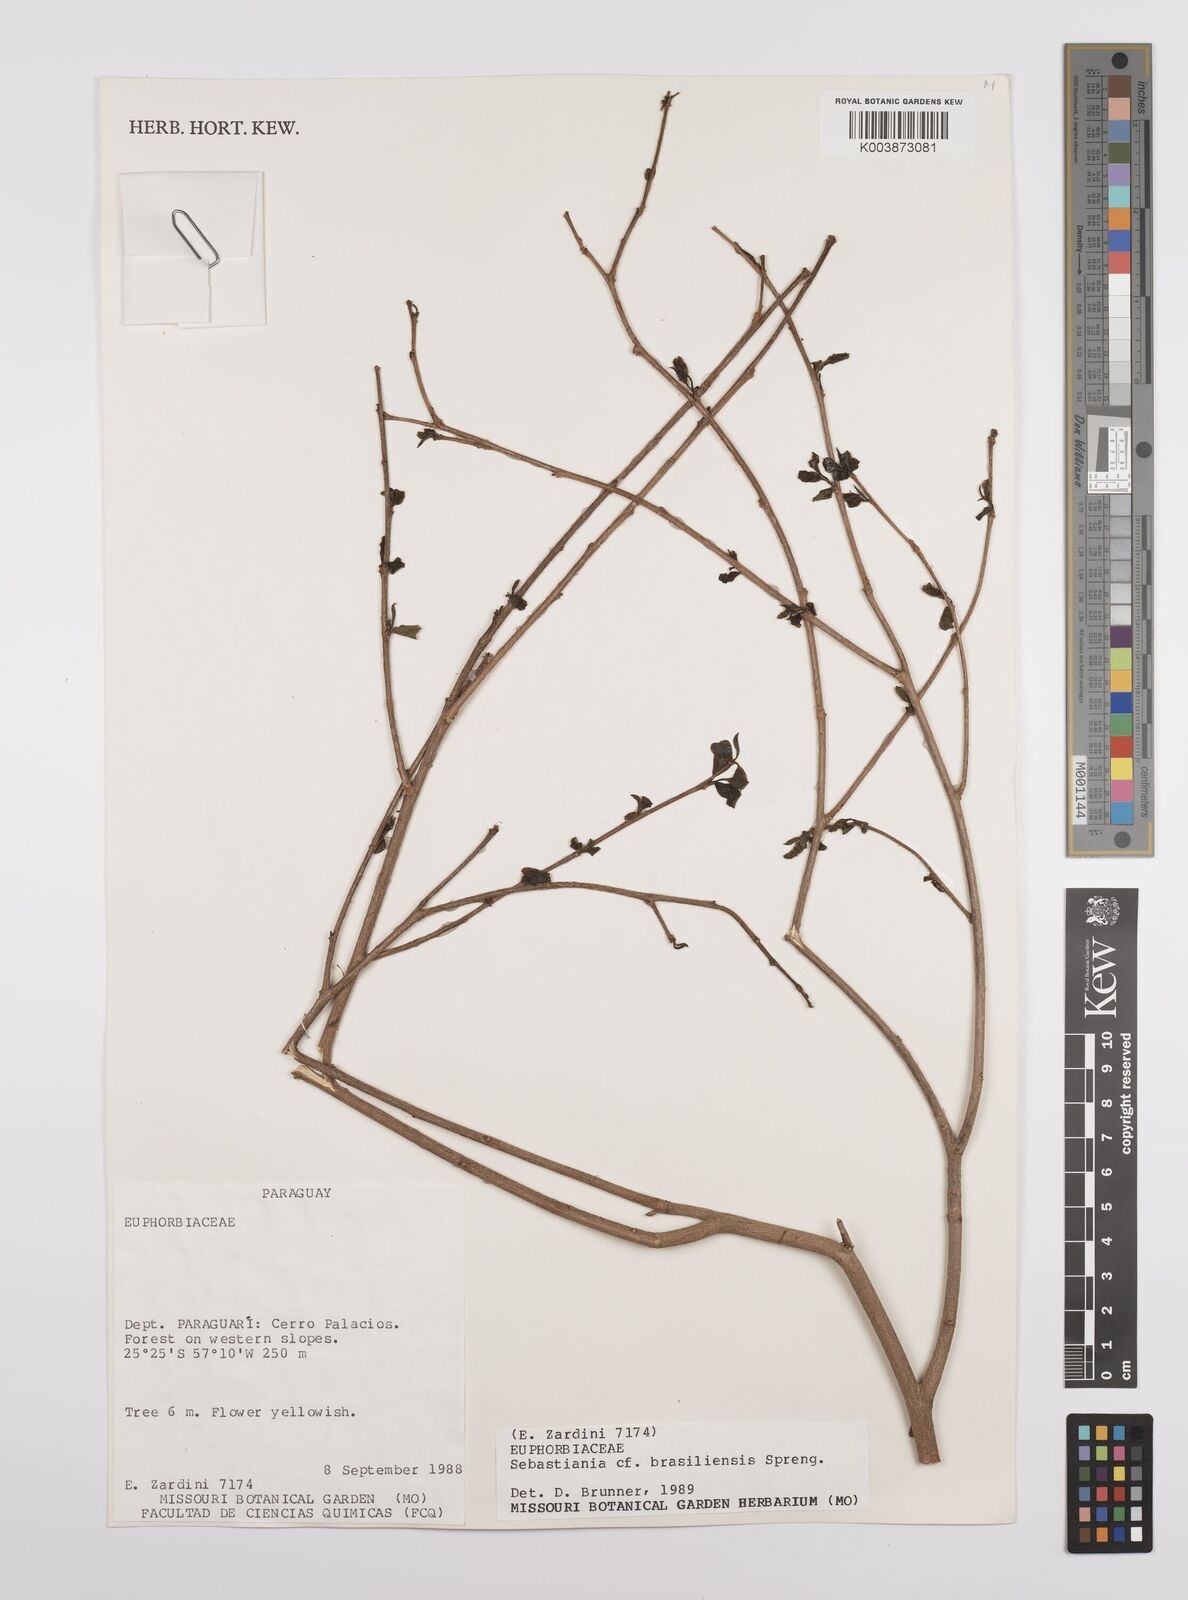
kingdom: Plantae
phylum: Tracheophyta
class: Magnoliopsida
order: Malpighiales
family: Euphorbiaceae
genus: Sebastiania
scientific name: Sebastiania brasiliensis
